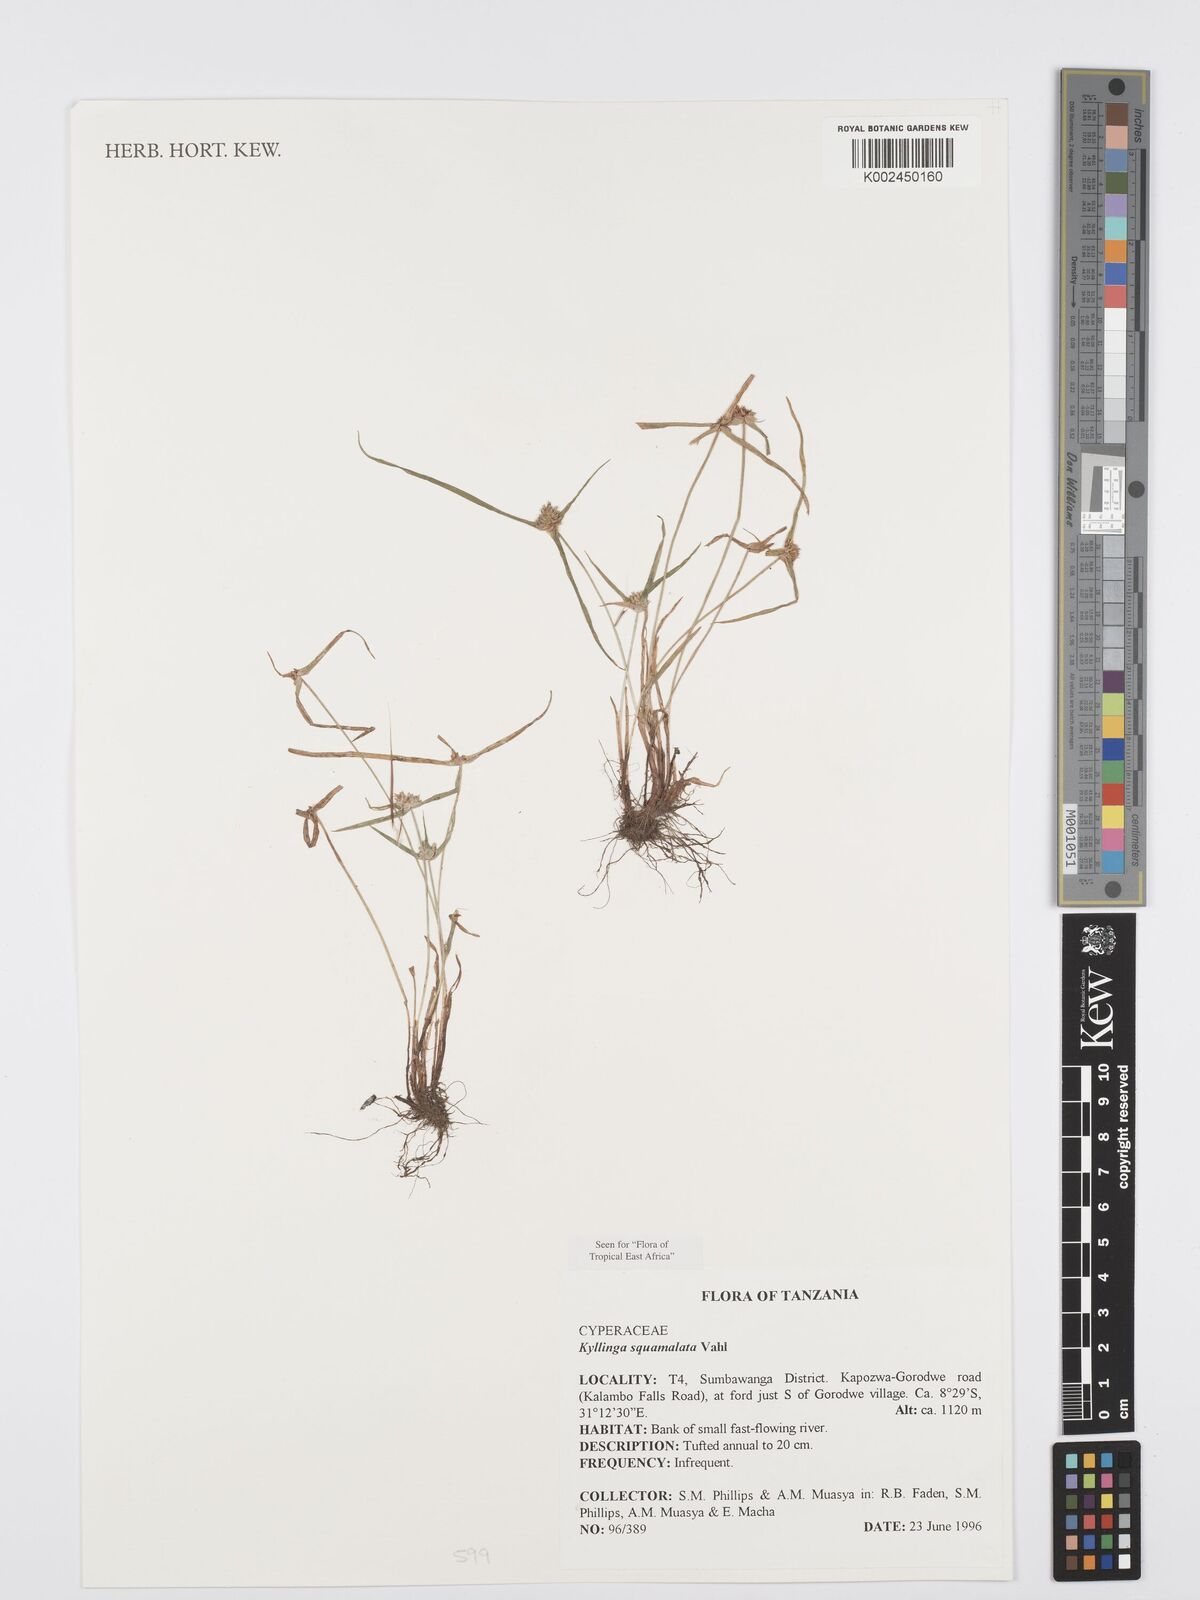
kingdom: Plantae
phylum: Tracheophyta
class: Liliopsida
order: Poales
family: Cyperaceae
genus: Cyperus
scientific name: Cyperus distans
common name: Slender cyperus
